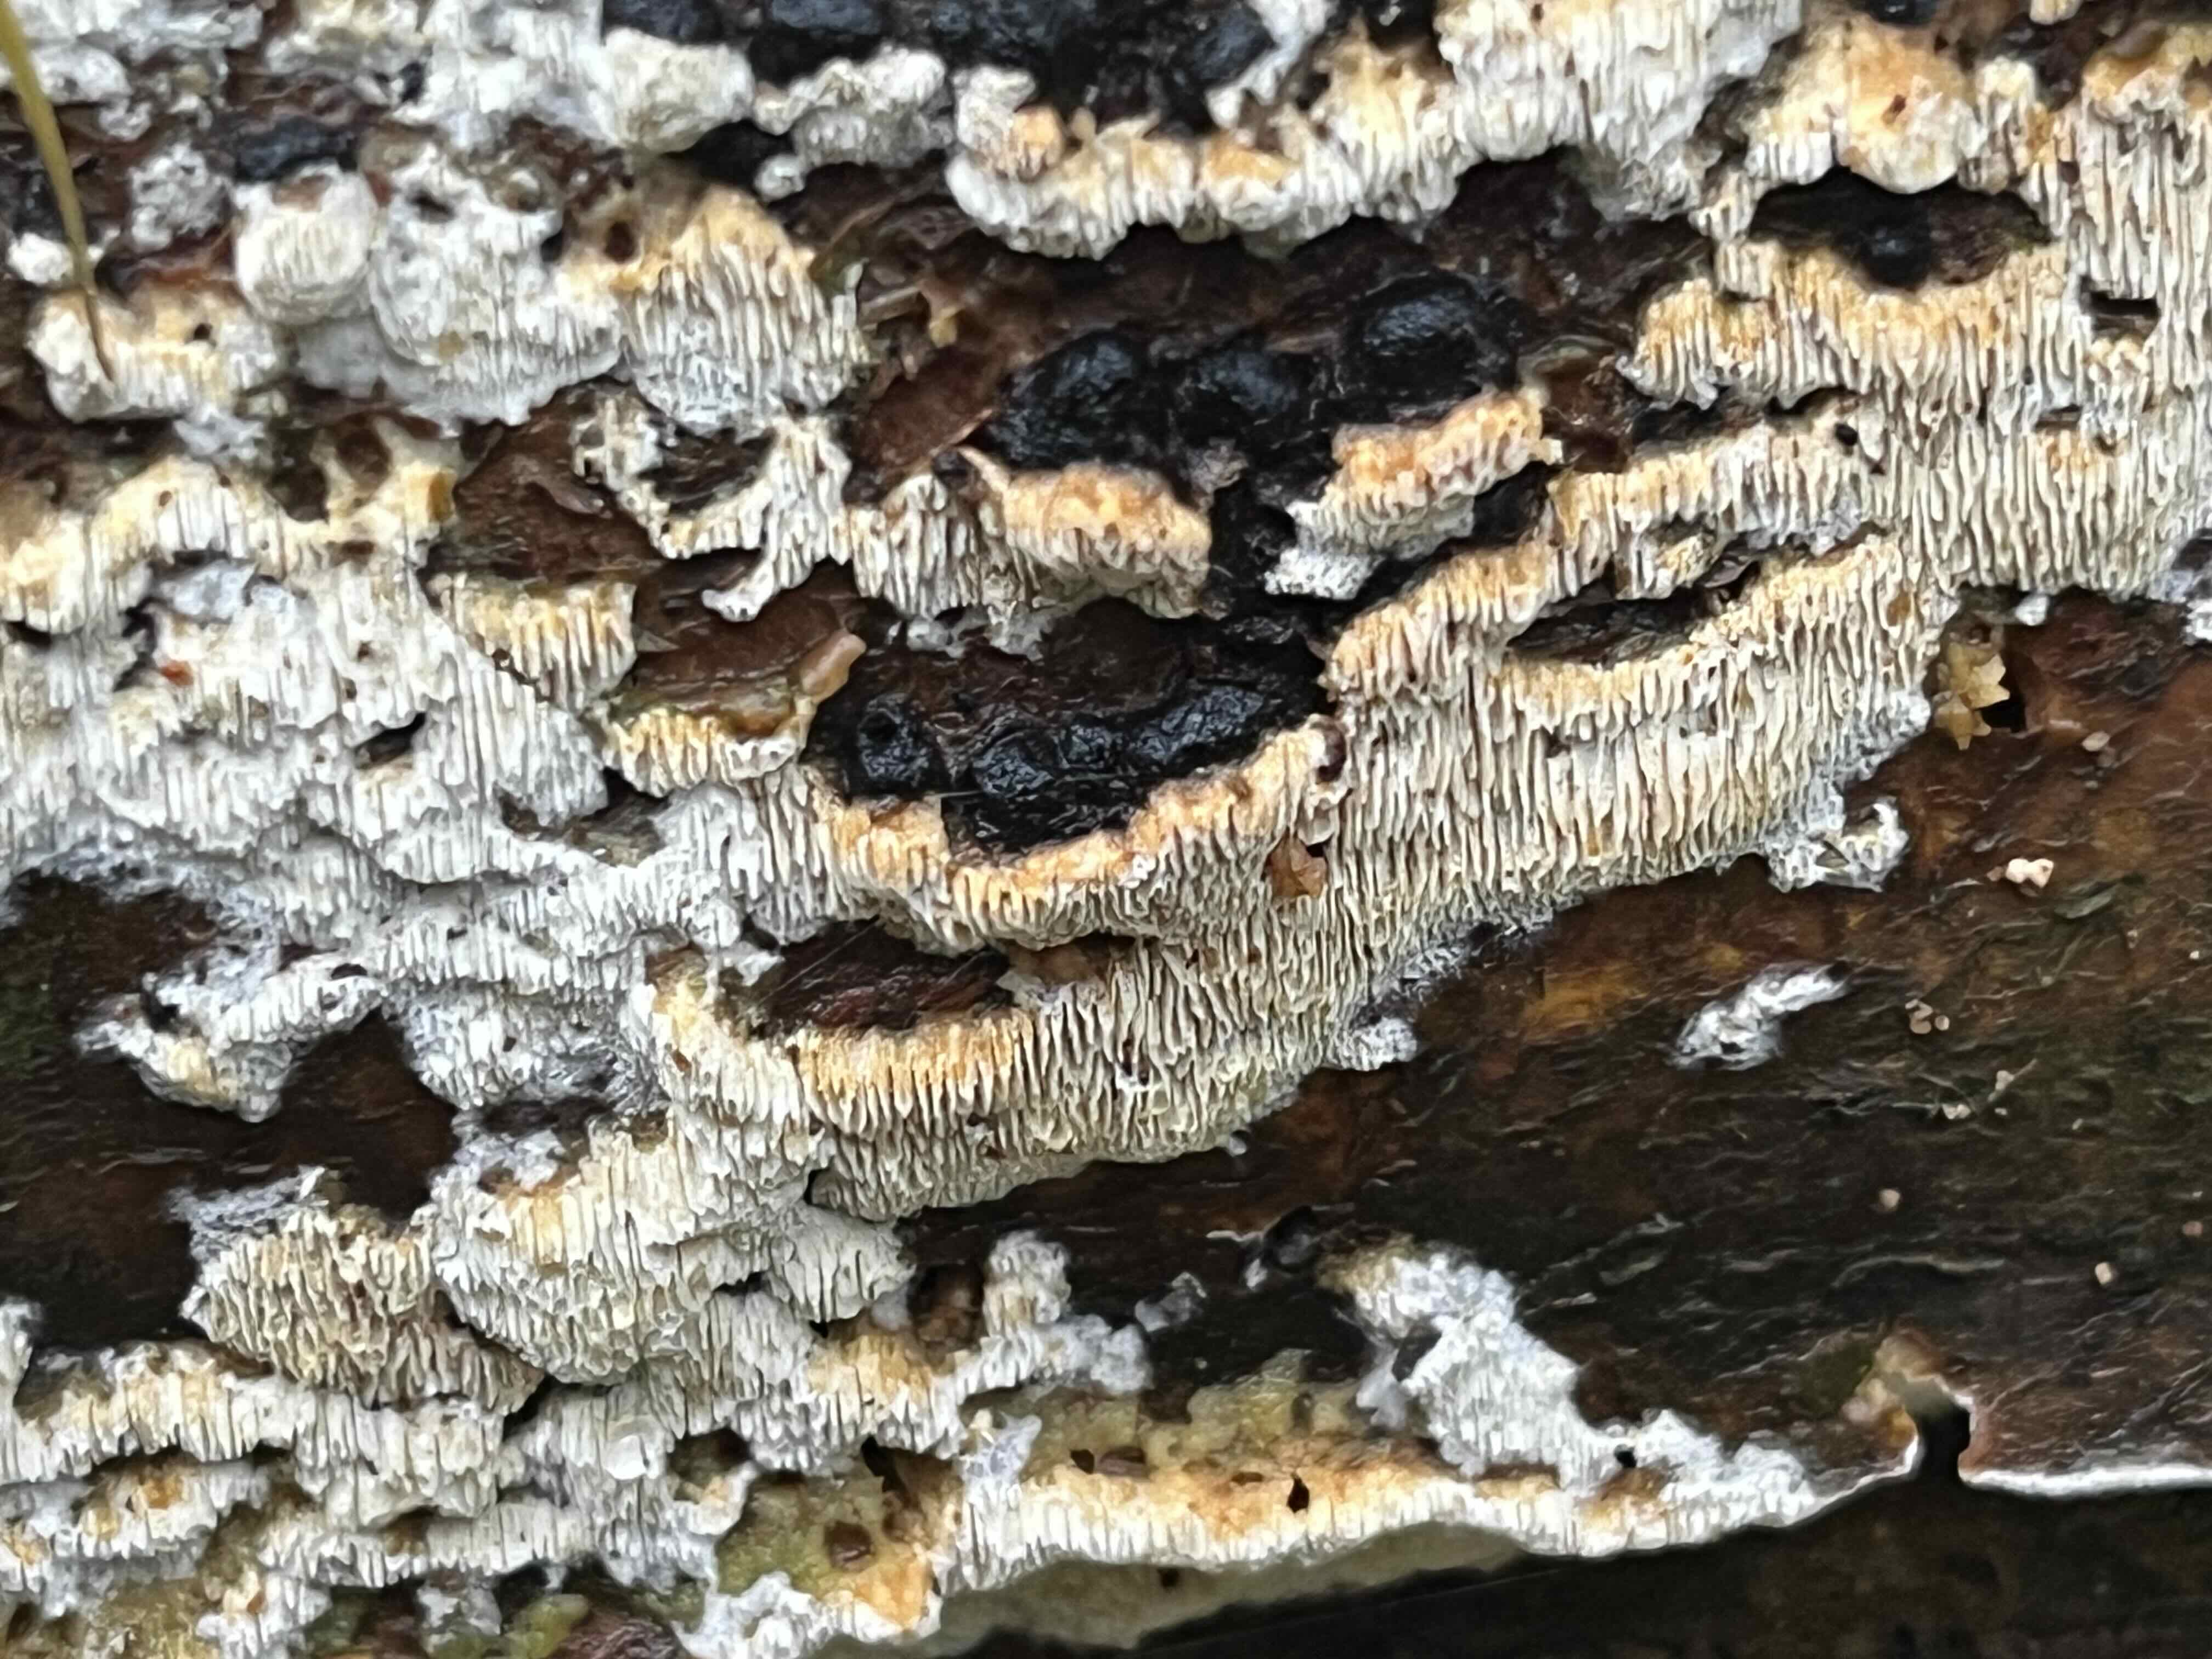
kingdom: Fungi
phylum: Basidiomycota
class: Agaricomycetes
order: Polyporales
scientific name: Polyporales
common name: poresvampordenen
